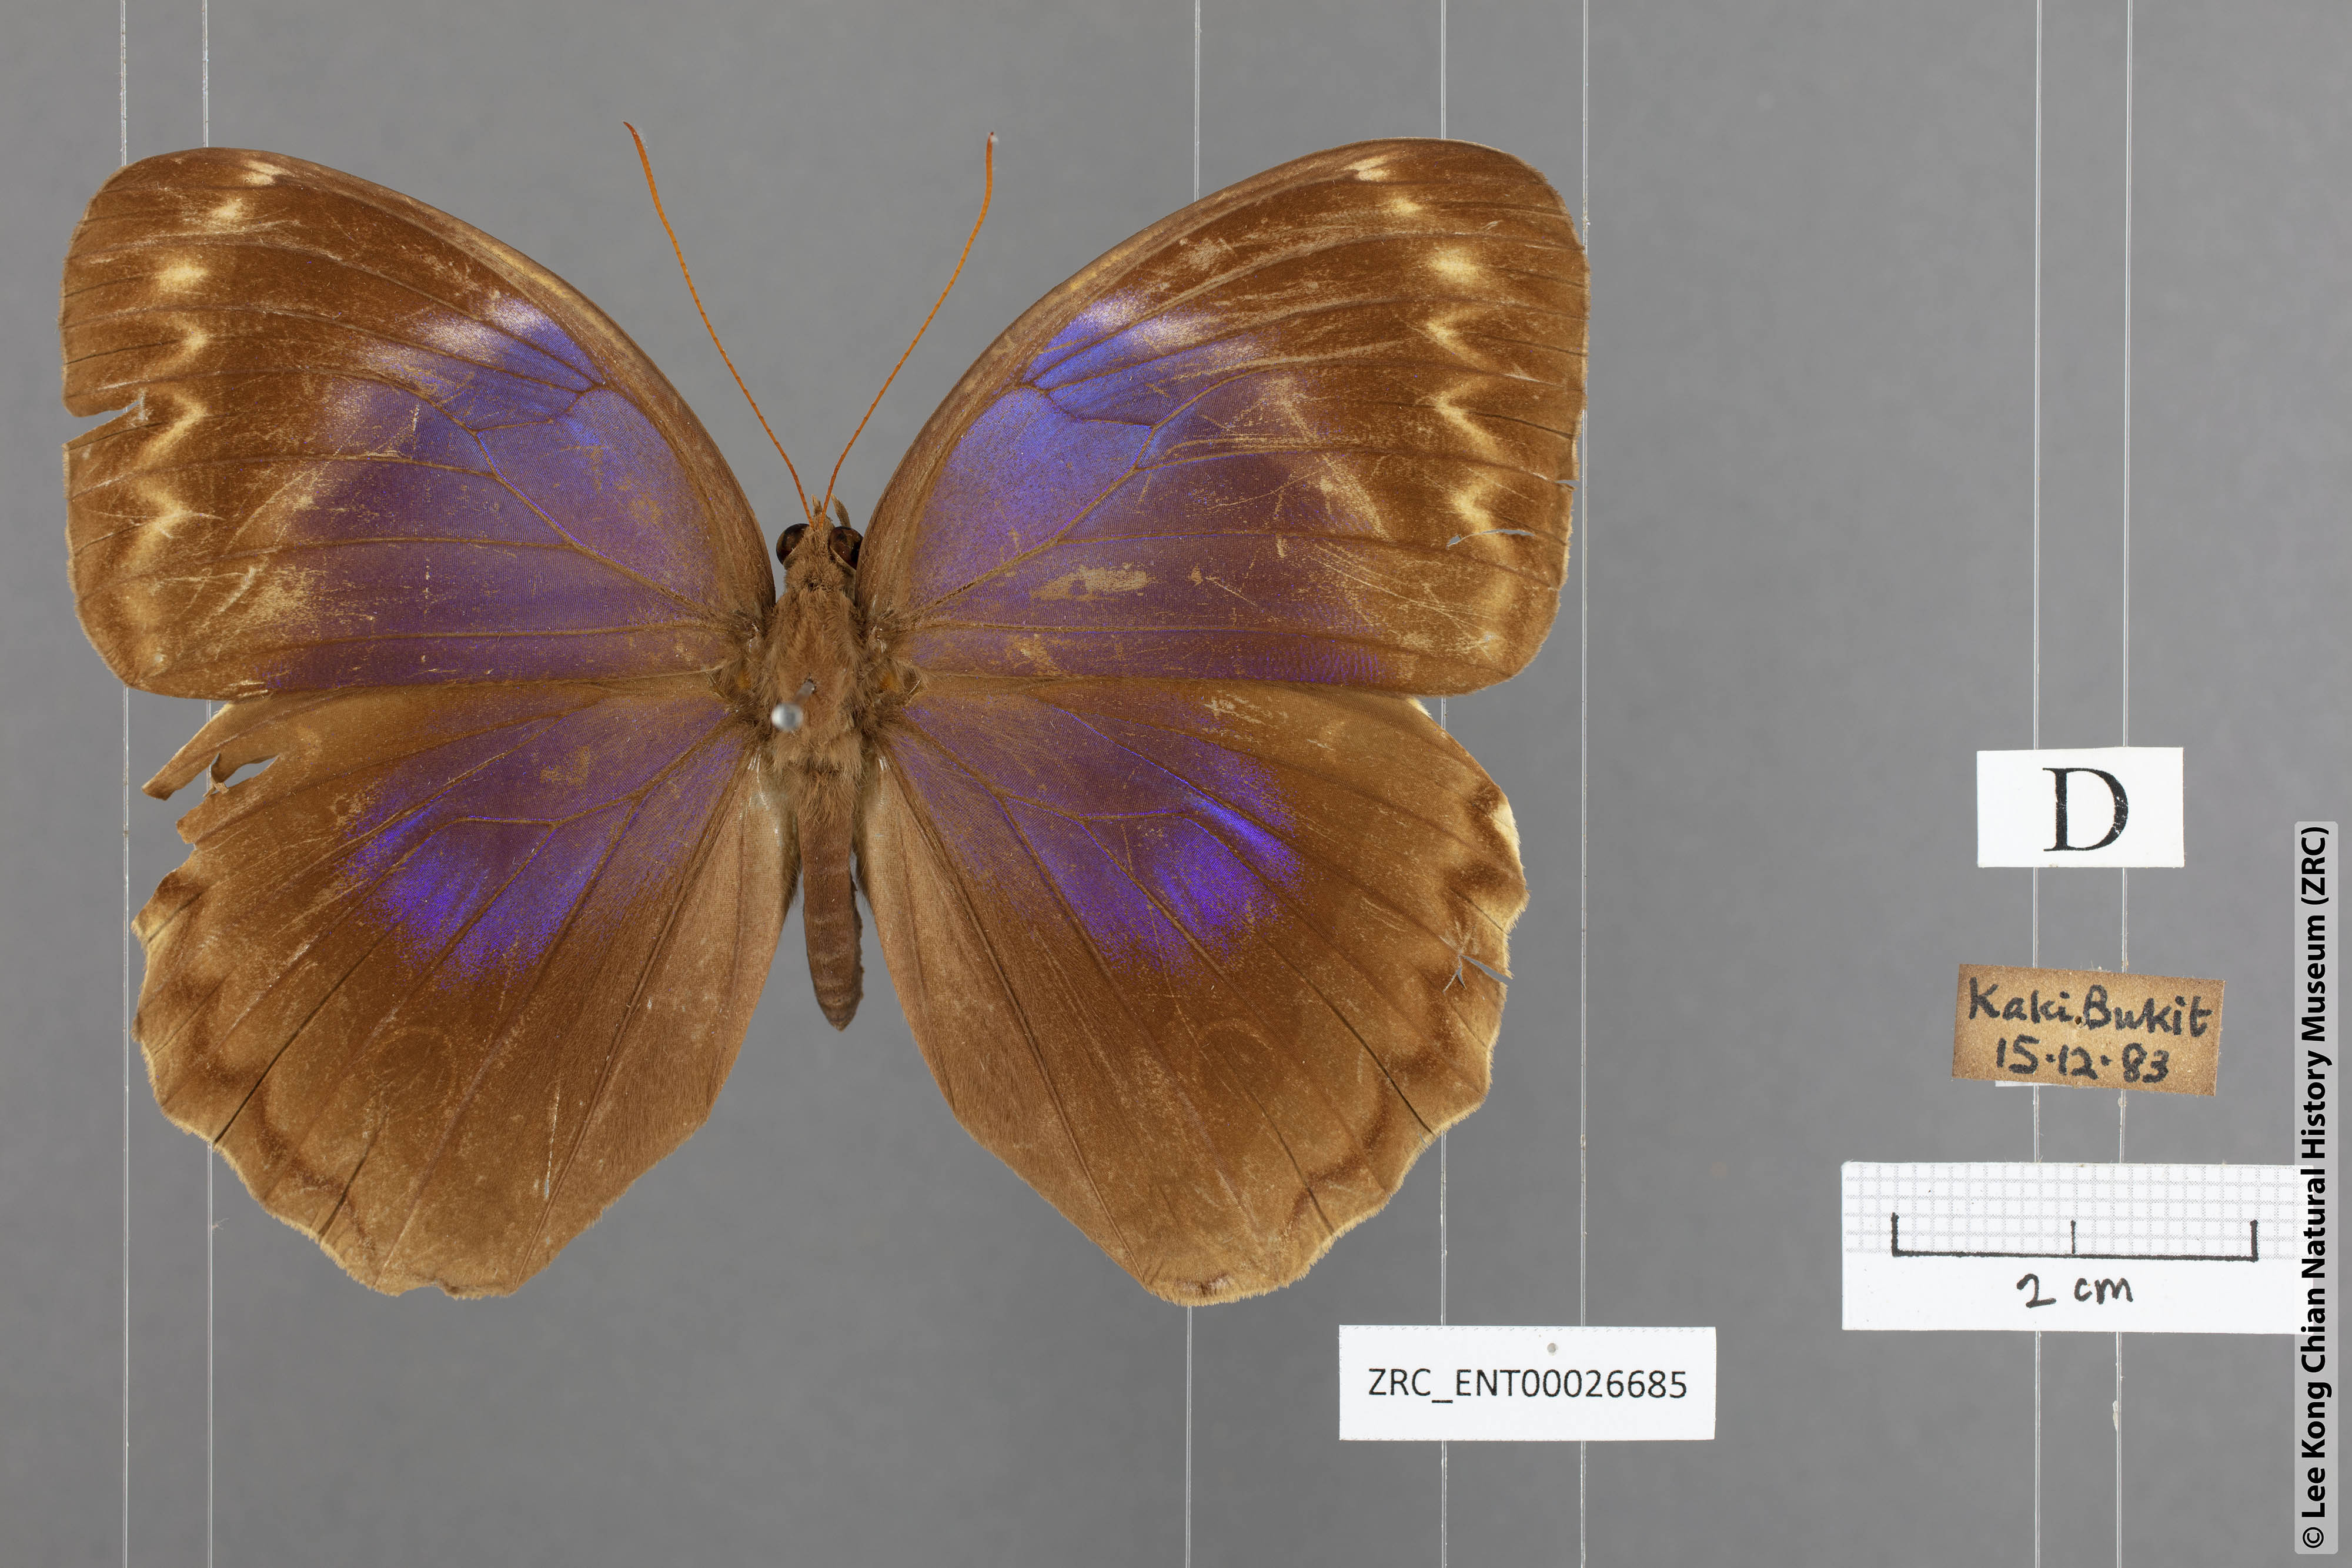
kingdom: Animalia
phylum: Arthropoda
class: Insecta
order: Lepidoptera
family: Nymphalidae
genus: Thaumantis
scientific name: Thaumantis klugius
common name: Dark blue jungle glory
